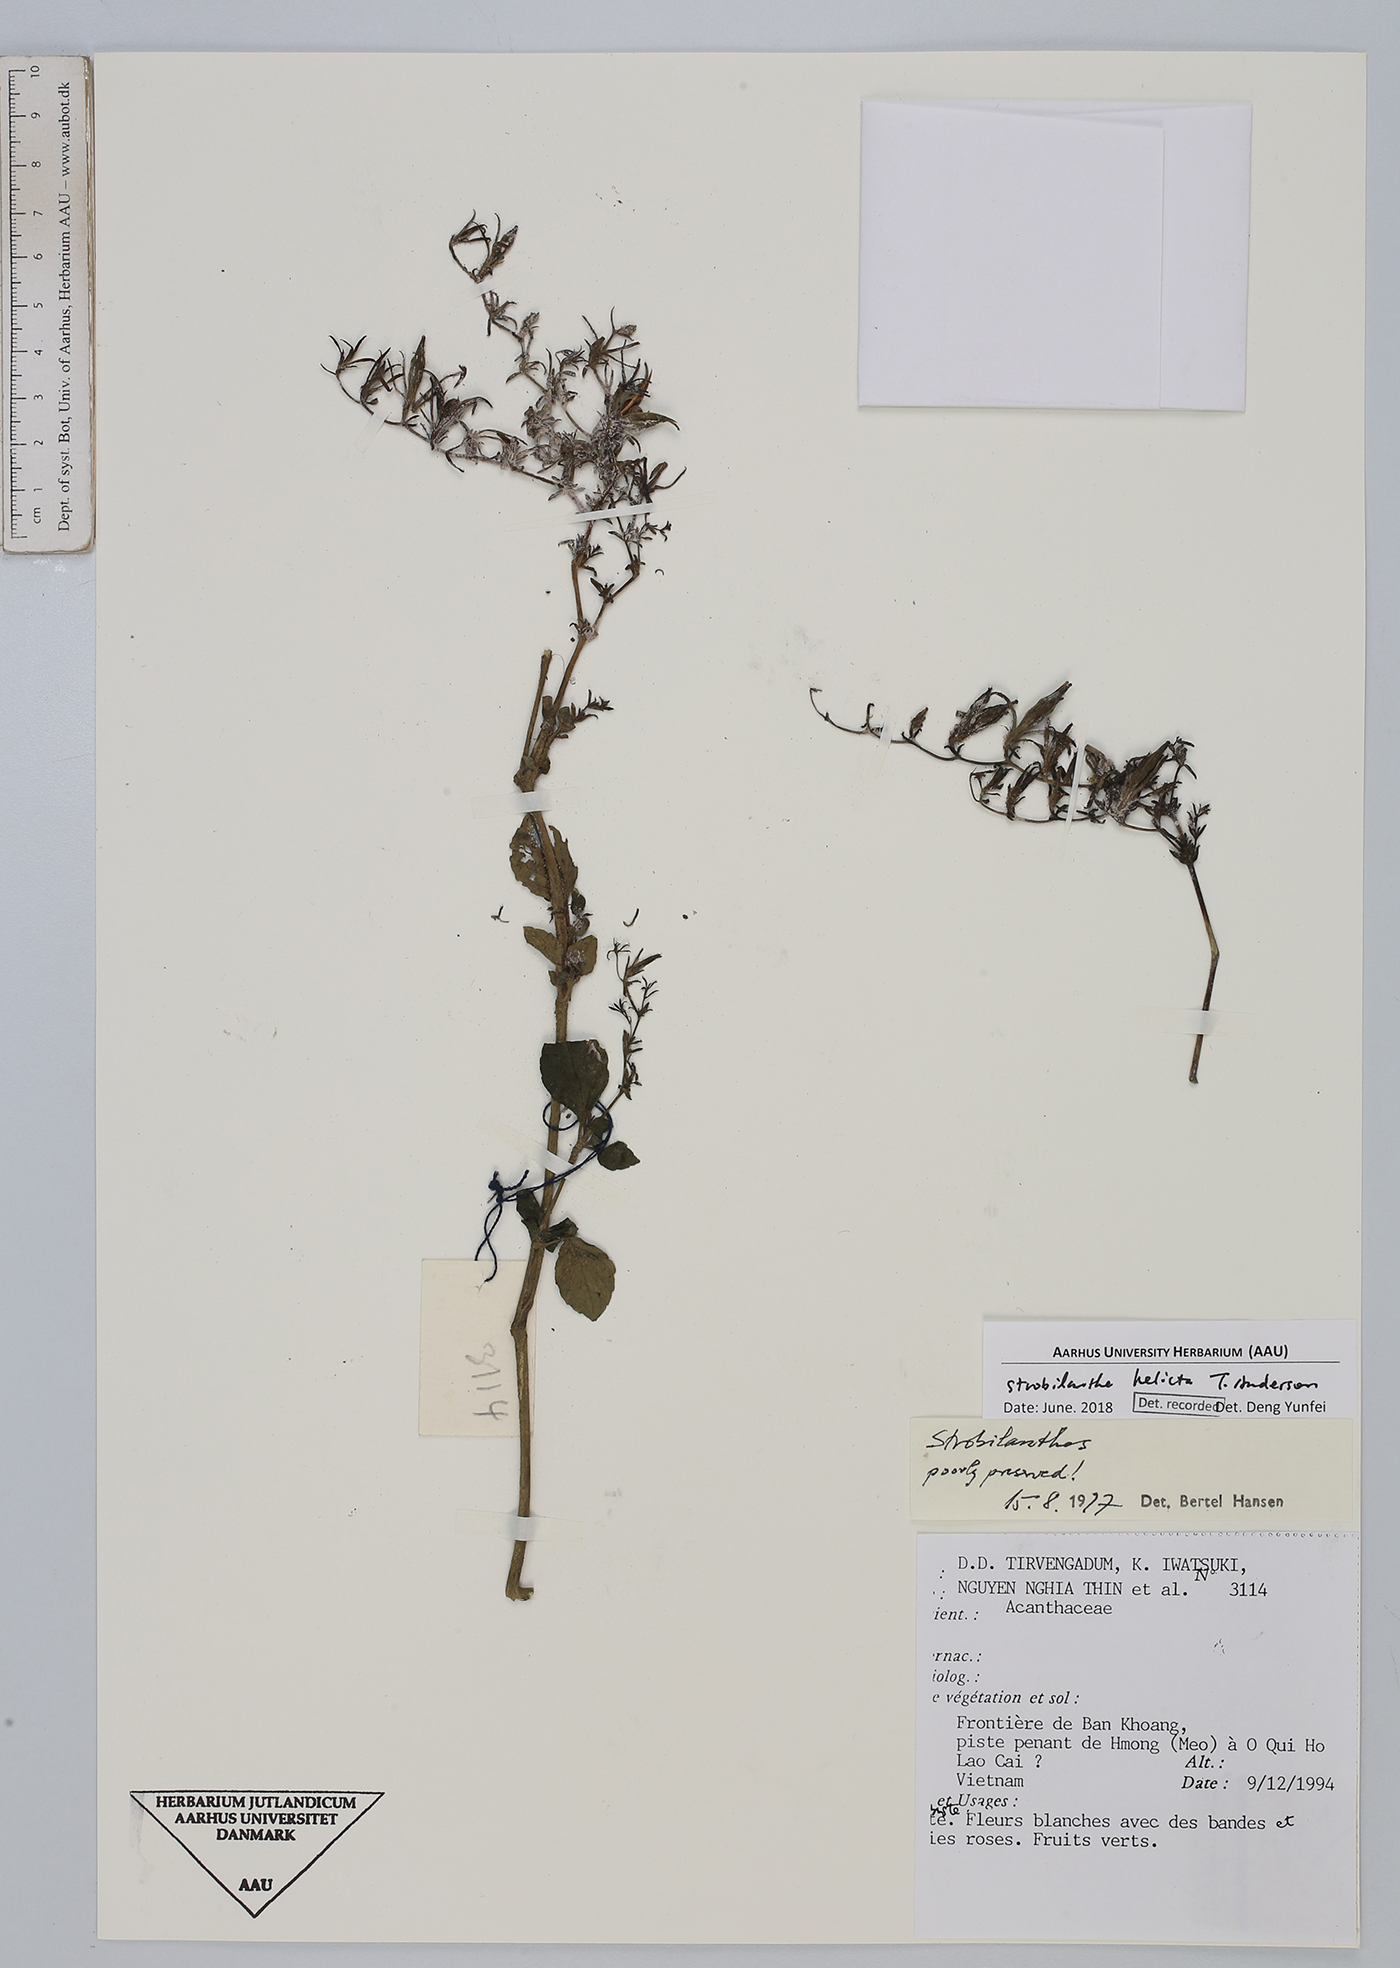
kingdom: Plantae
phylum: Tracheophyta
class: Magnoliopsida
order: Lamiales
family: Acanthaceae
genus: Strobilanthes
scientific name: Strobilanthes helicta
